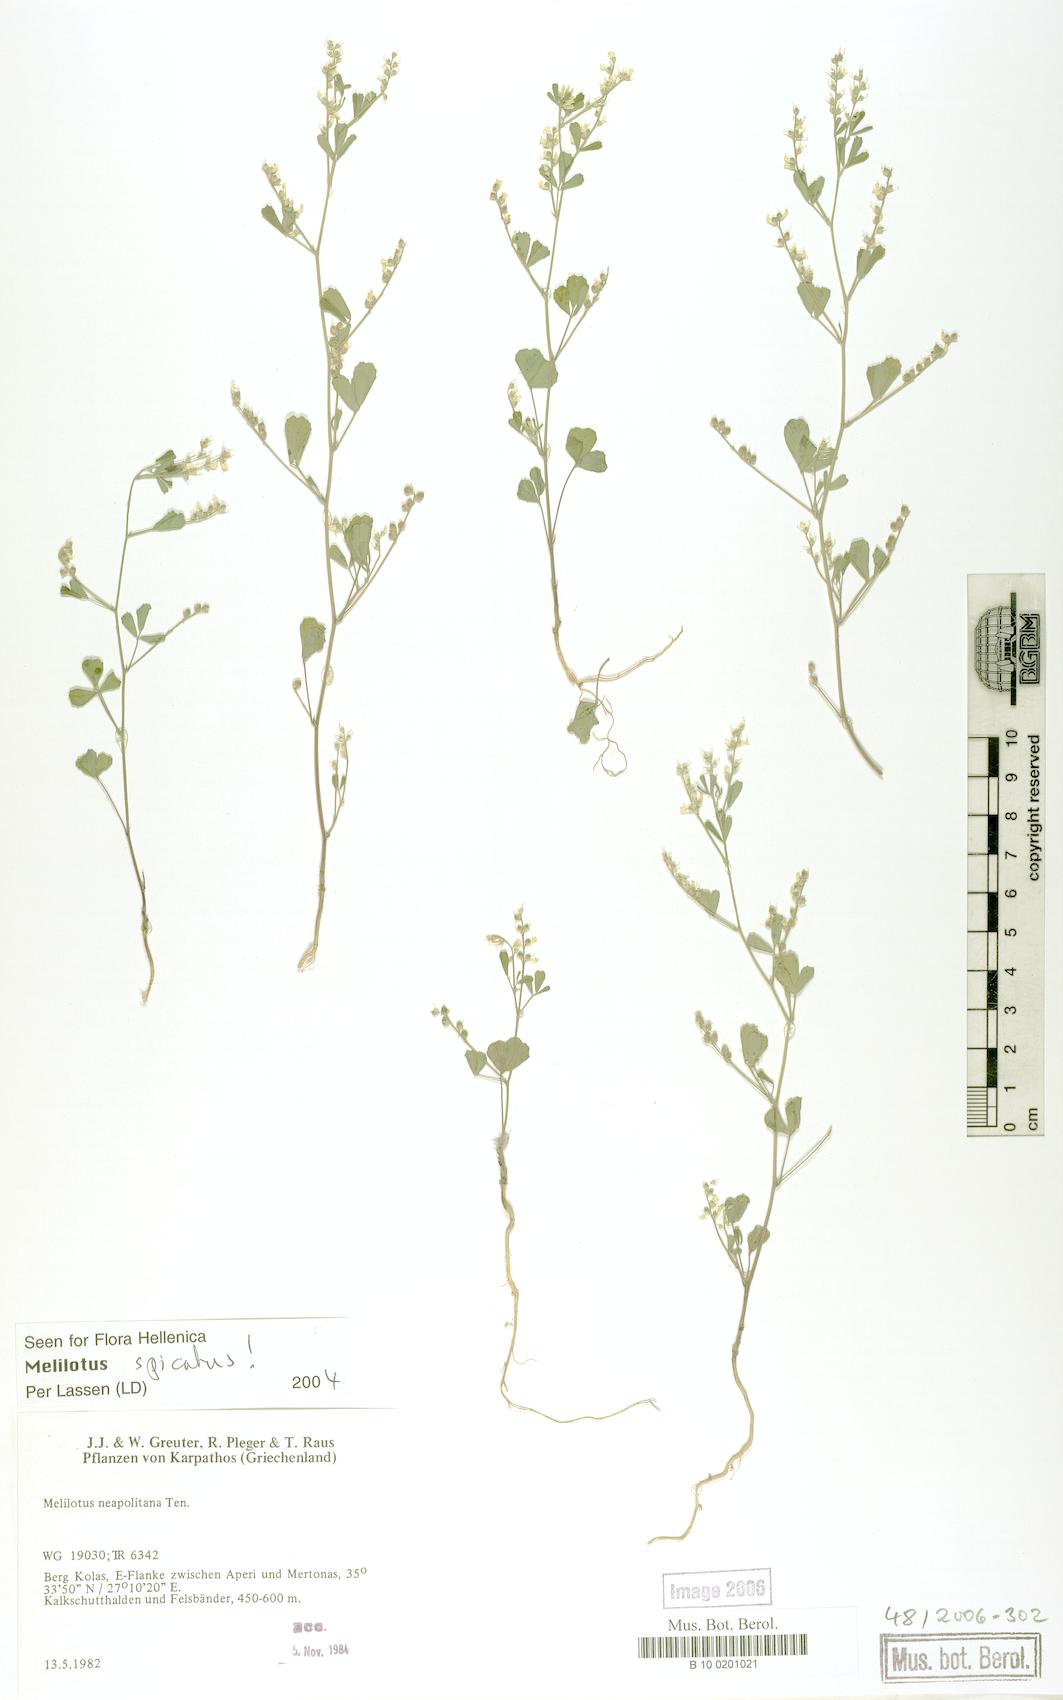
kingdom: Plantae
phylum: Tracheophyta
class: Magnoliopsida
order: Fabales
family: Fabaceae
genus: Melilotus
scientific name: Melilotus neapolitanus
